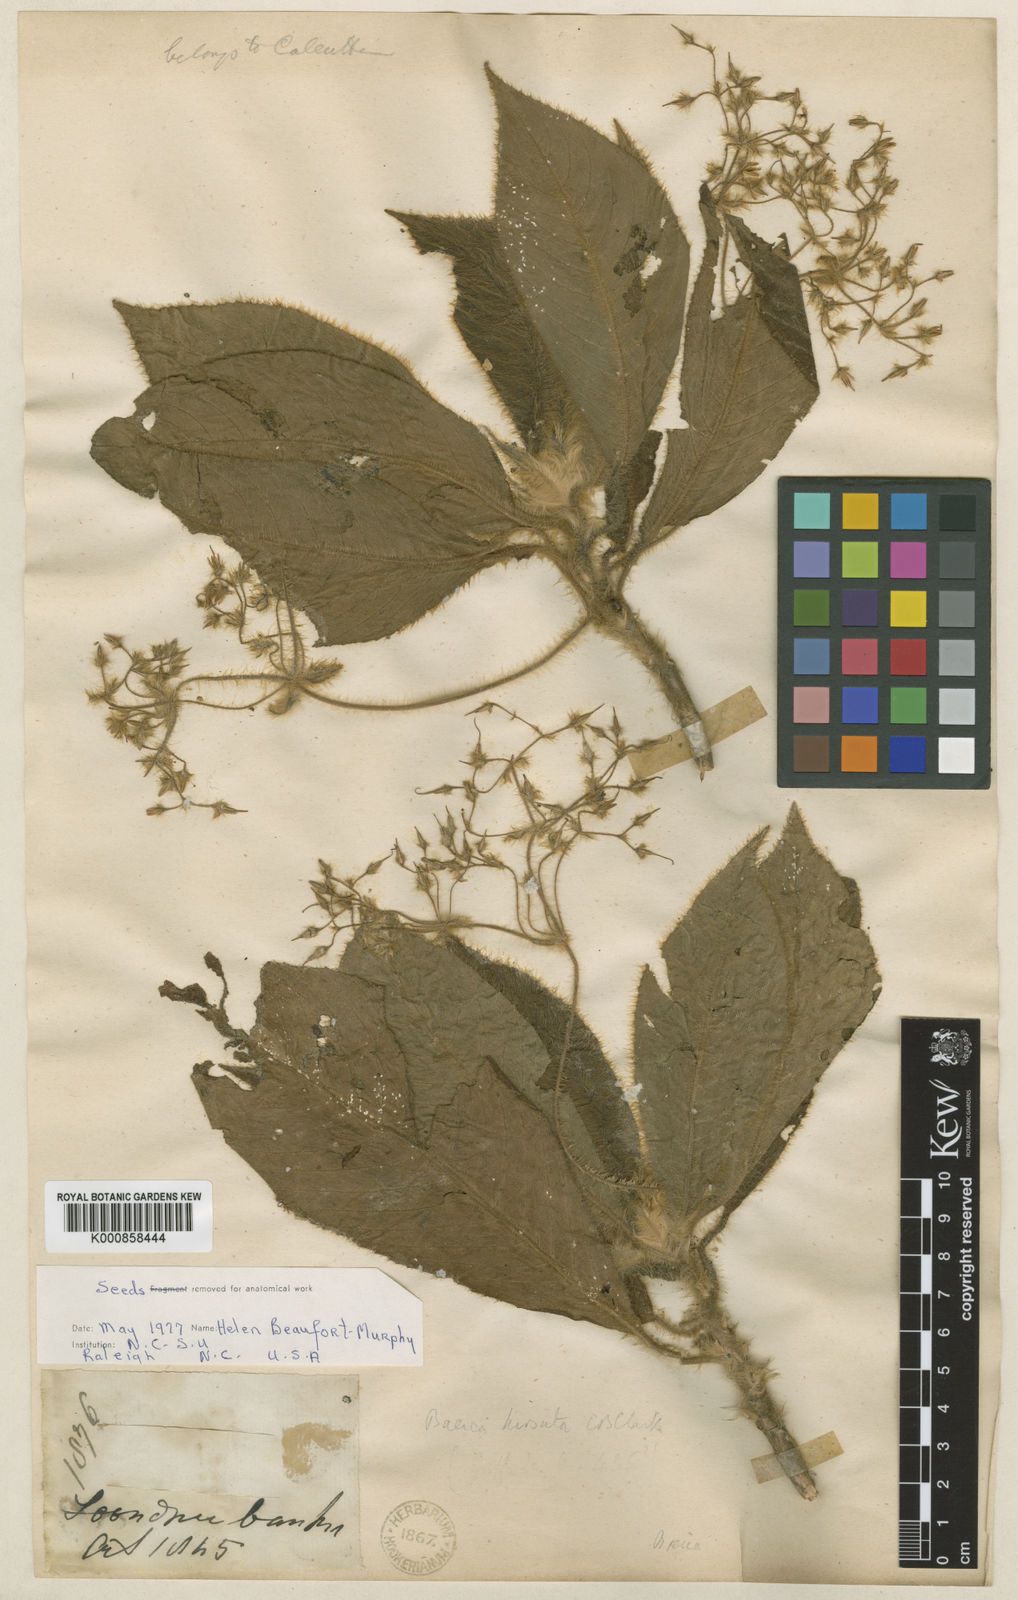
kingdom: Plantae
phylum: Tracheophyta
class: Magnoliopsida
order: Lamiales
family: Gesneriaceae
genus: Boeica
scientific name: Boeica hirsuta
